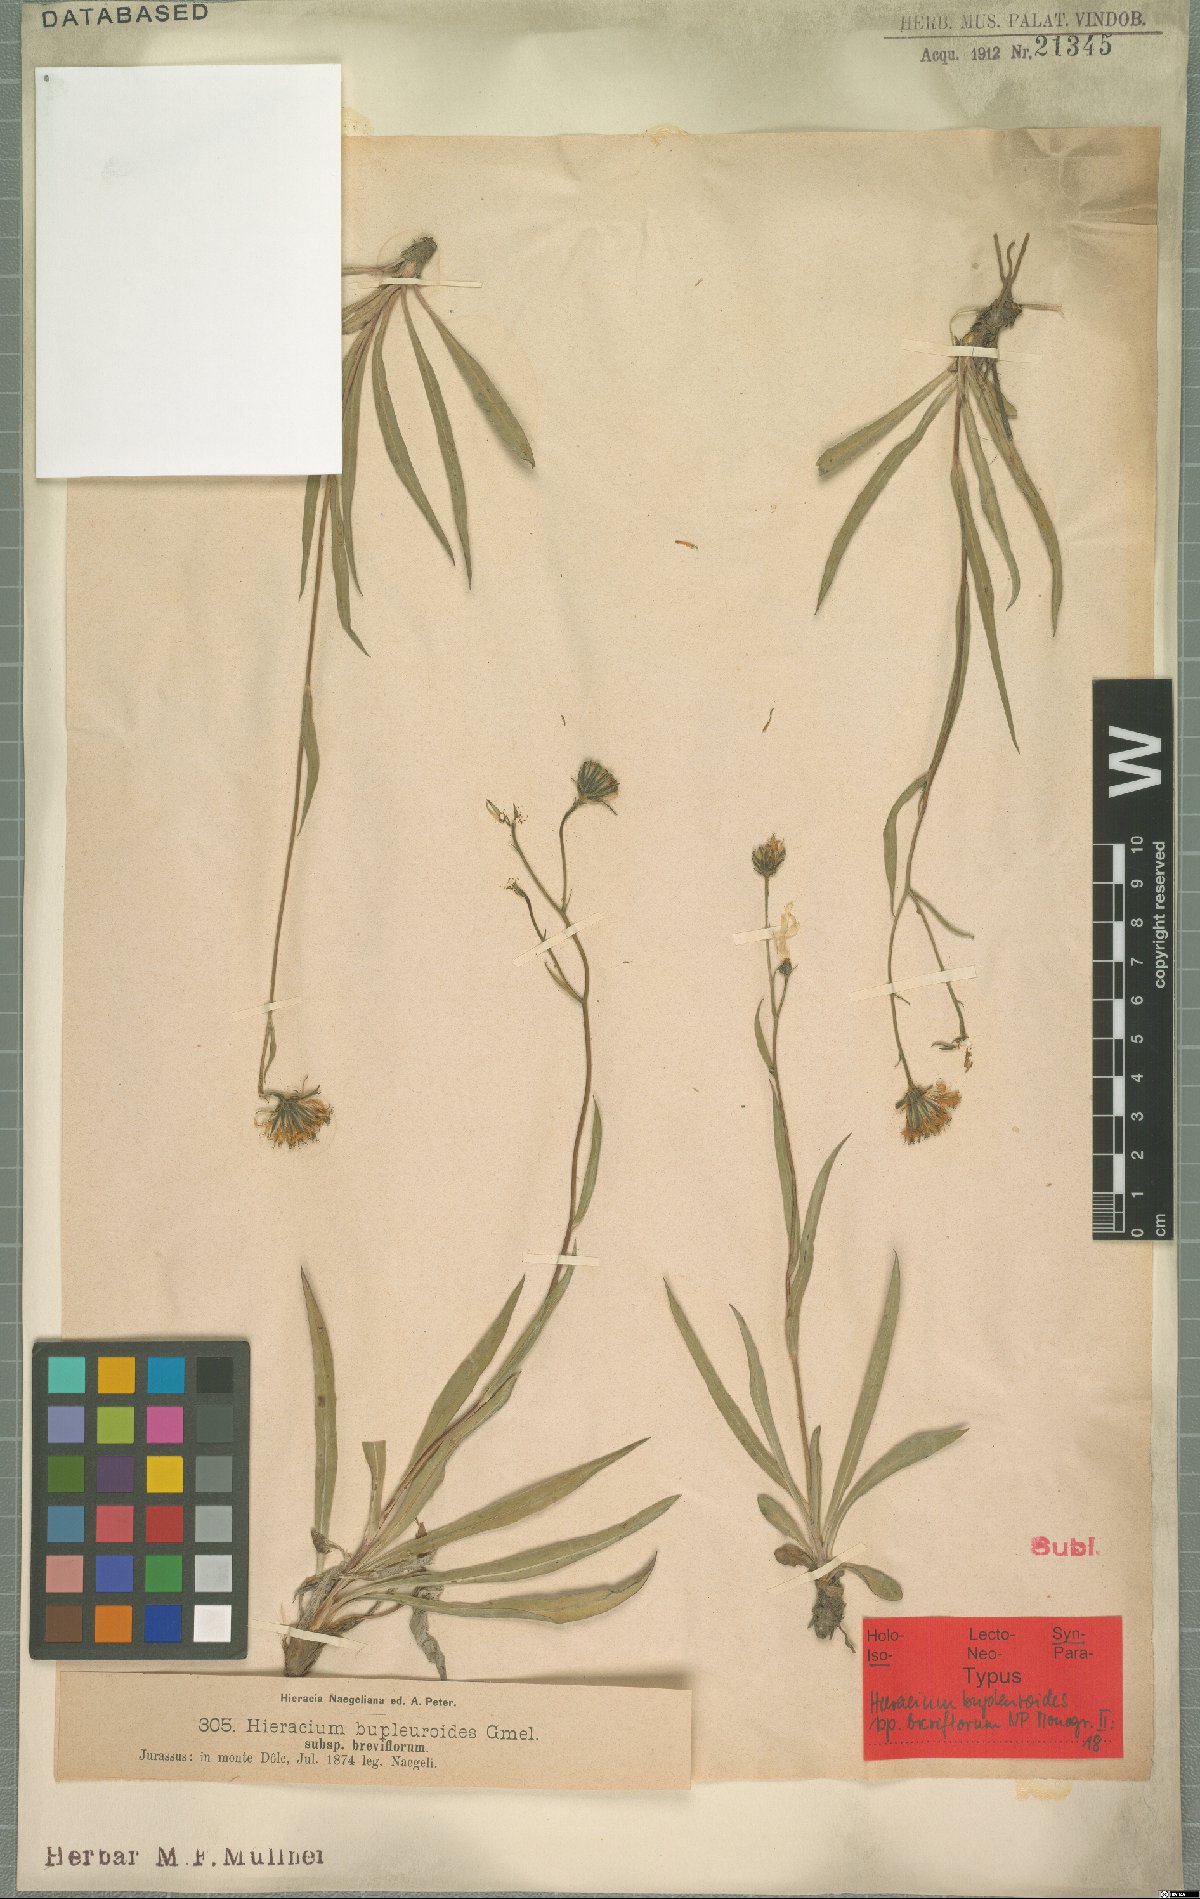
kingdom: Plantae
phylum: Tracheophyta
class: Magnoliopsida
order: Asterales
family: Asteraceae
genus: Hieracium
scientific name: Hieracium bupleuroides
